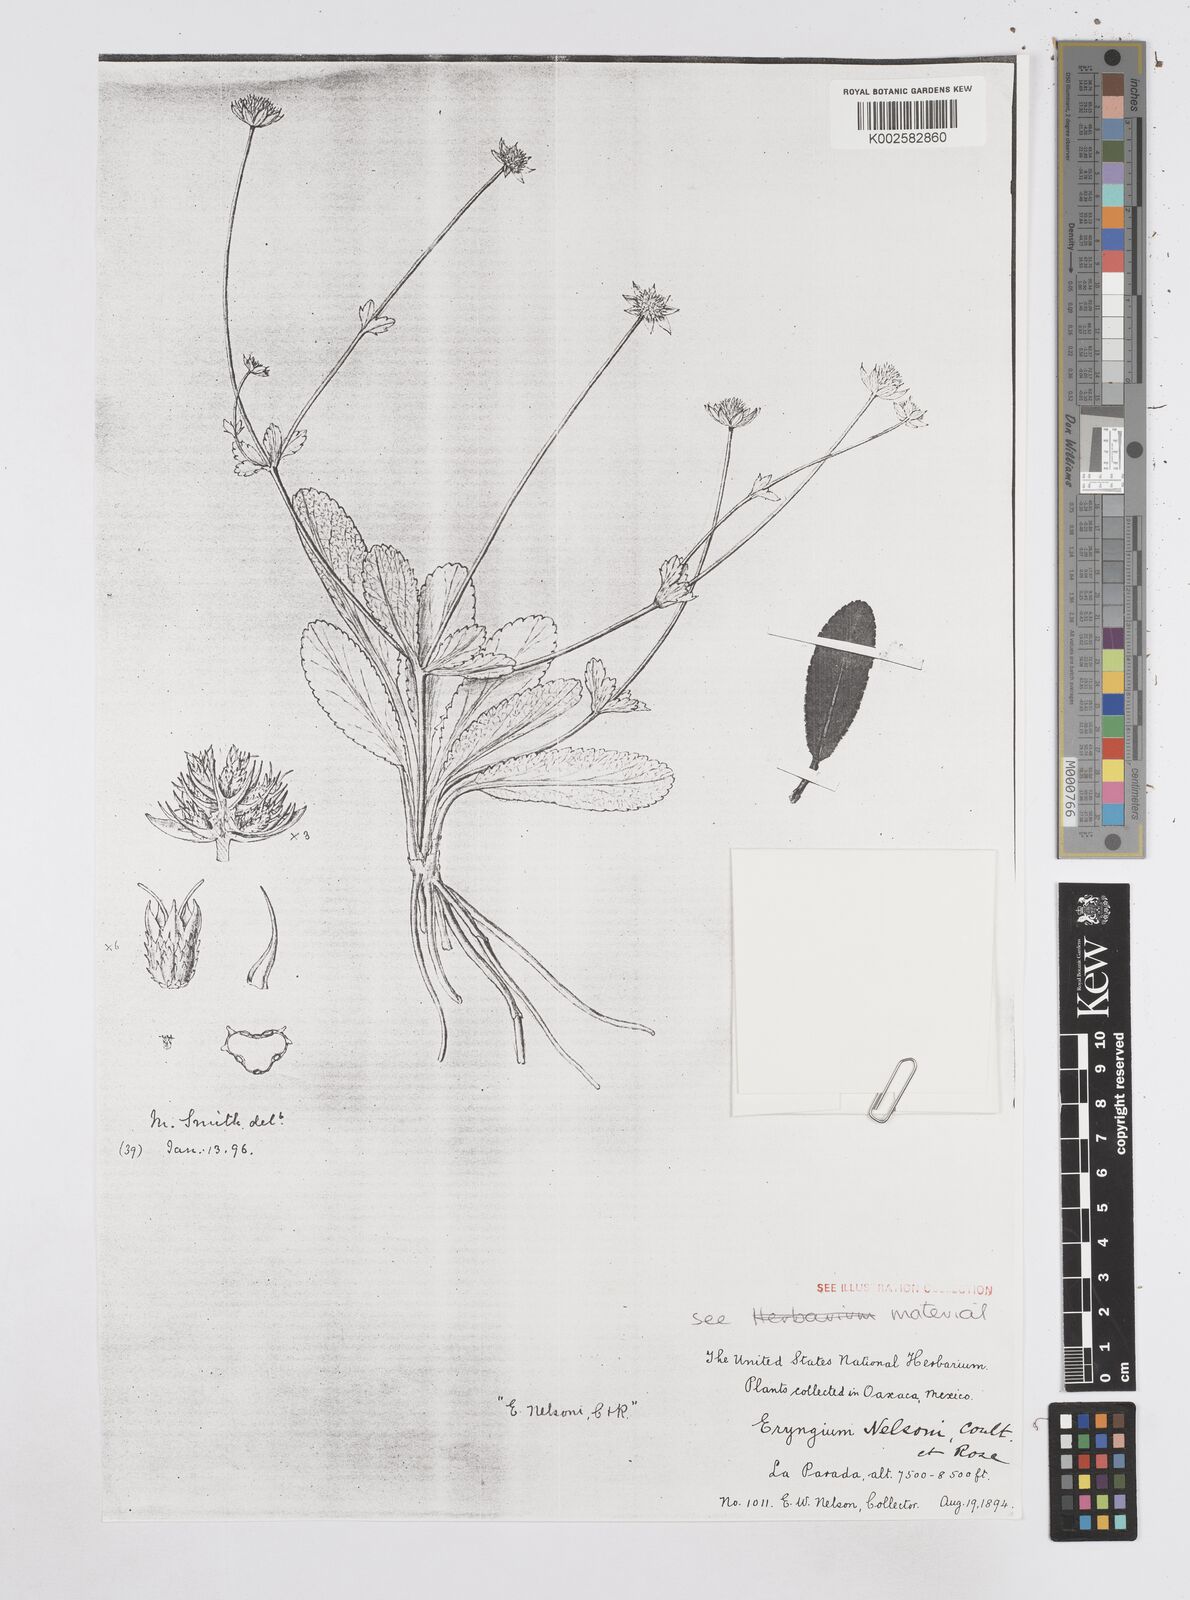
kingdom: Plantae
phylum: Tracheophyta
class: Magnoliopsida
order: Apiales
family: Apiaceae
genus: Eryngium
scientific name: Eryngium scaposum
